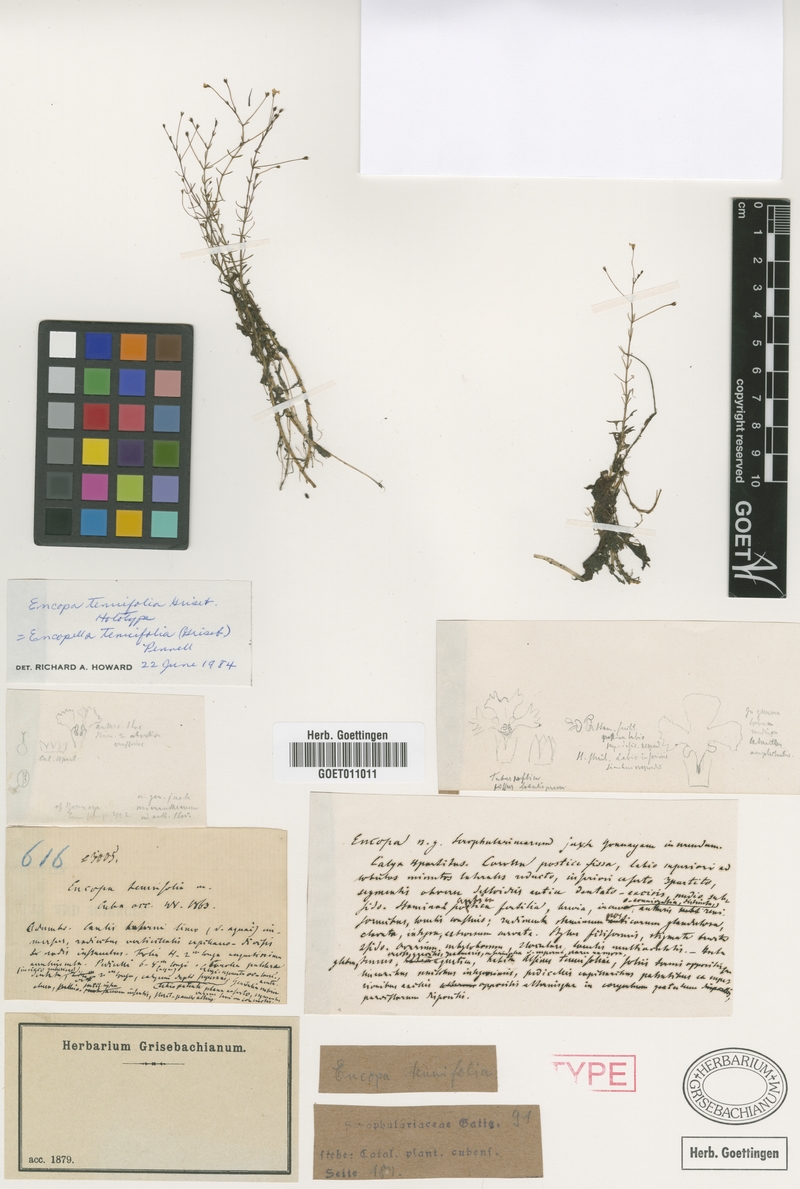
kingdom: Plantae
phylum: Tracheophyta
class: Magnoliopsida
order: Lamiales
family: Plantaginaceae
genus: Encopella
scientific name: Encopella tenuifolia
